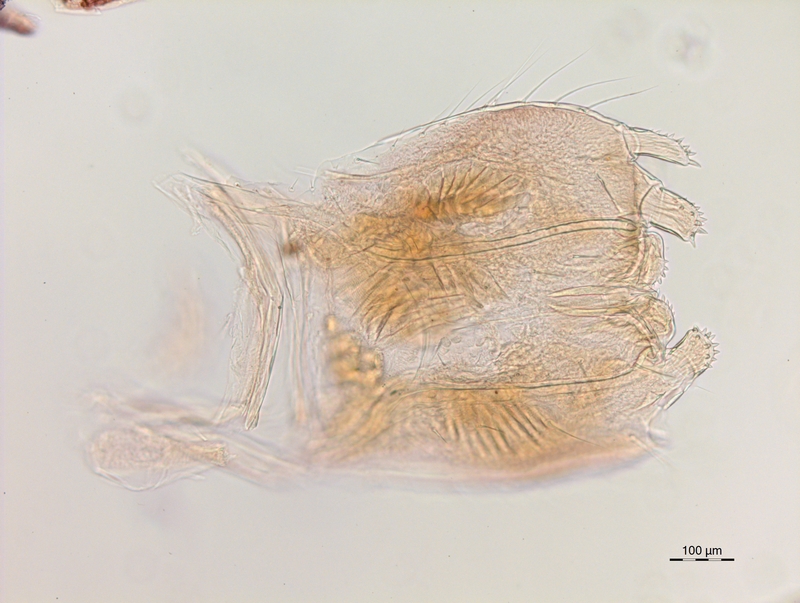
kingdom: Animalia
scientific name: Animalia
